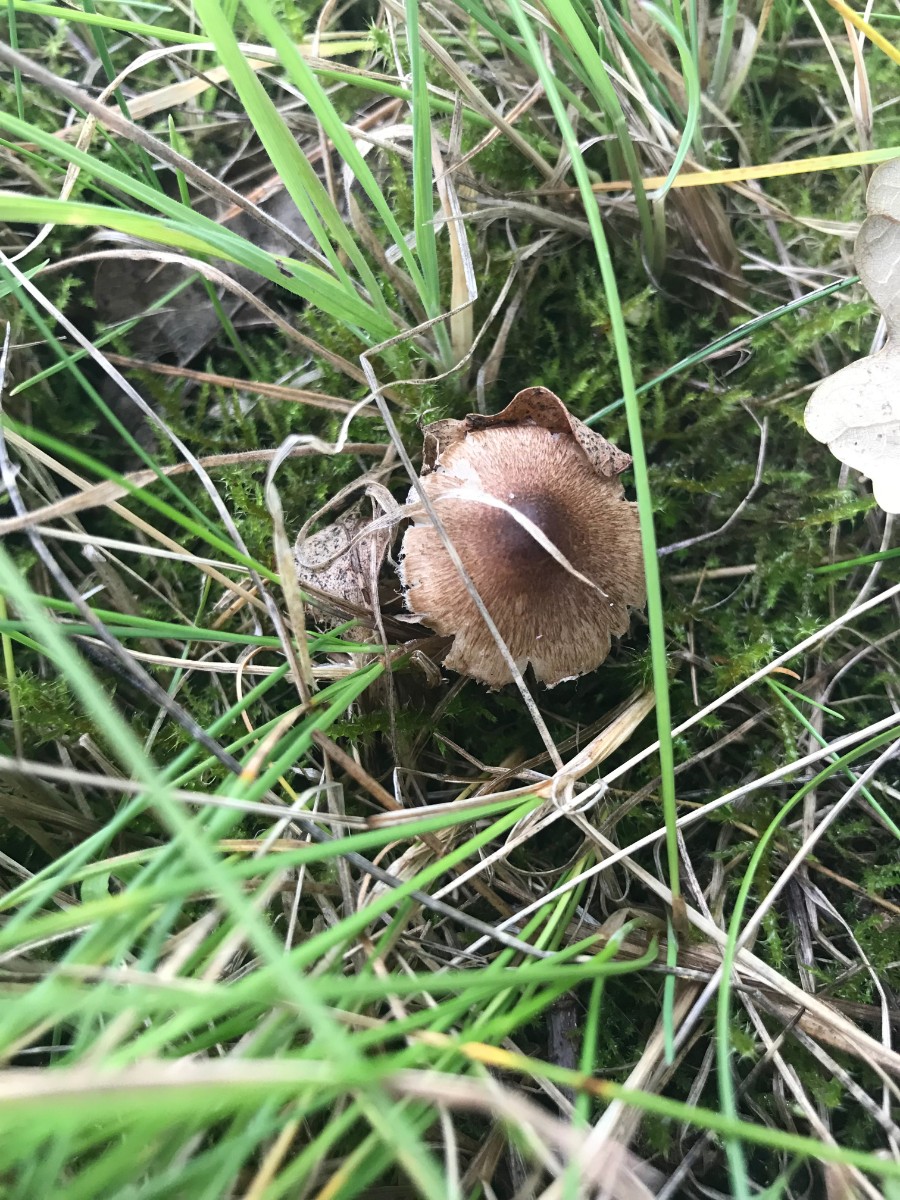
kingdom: Fungi
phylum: Basidiomycota
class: Agaricomycetes
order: Agaricales
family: Inocybaceae
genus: Inocybe
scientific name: Inocybe curvipes
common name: plæne-trævlhat
